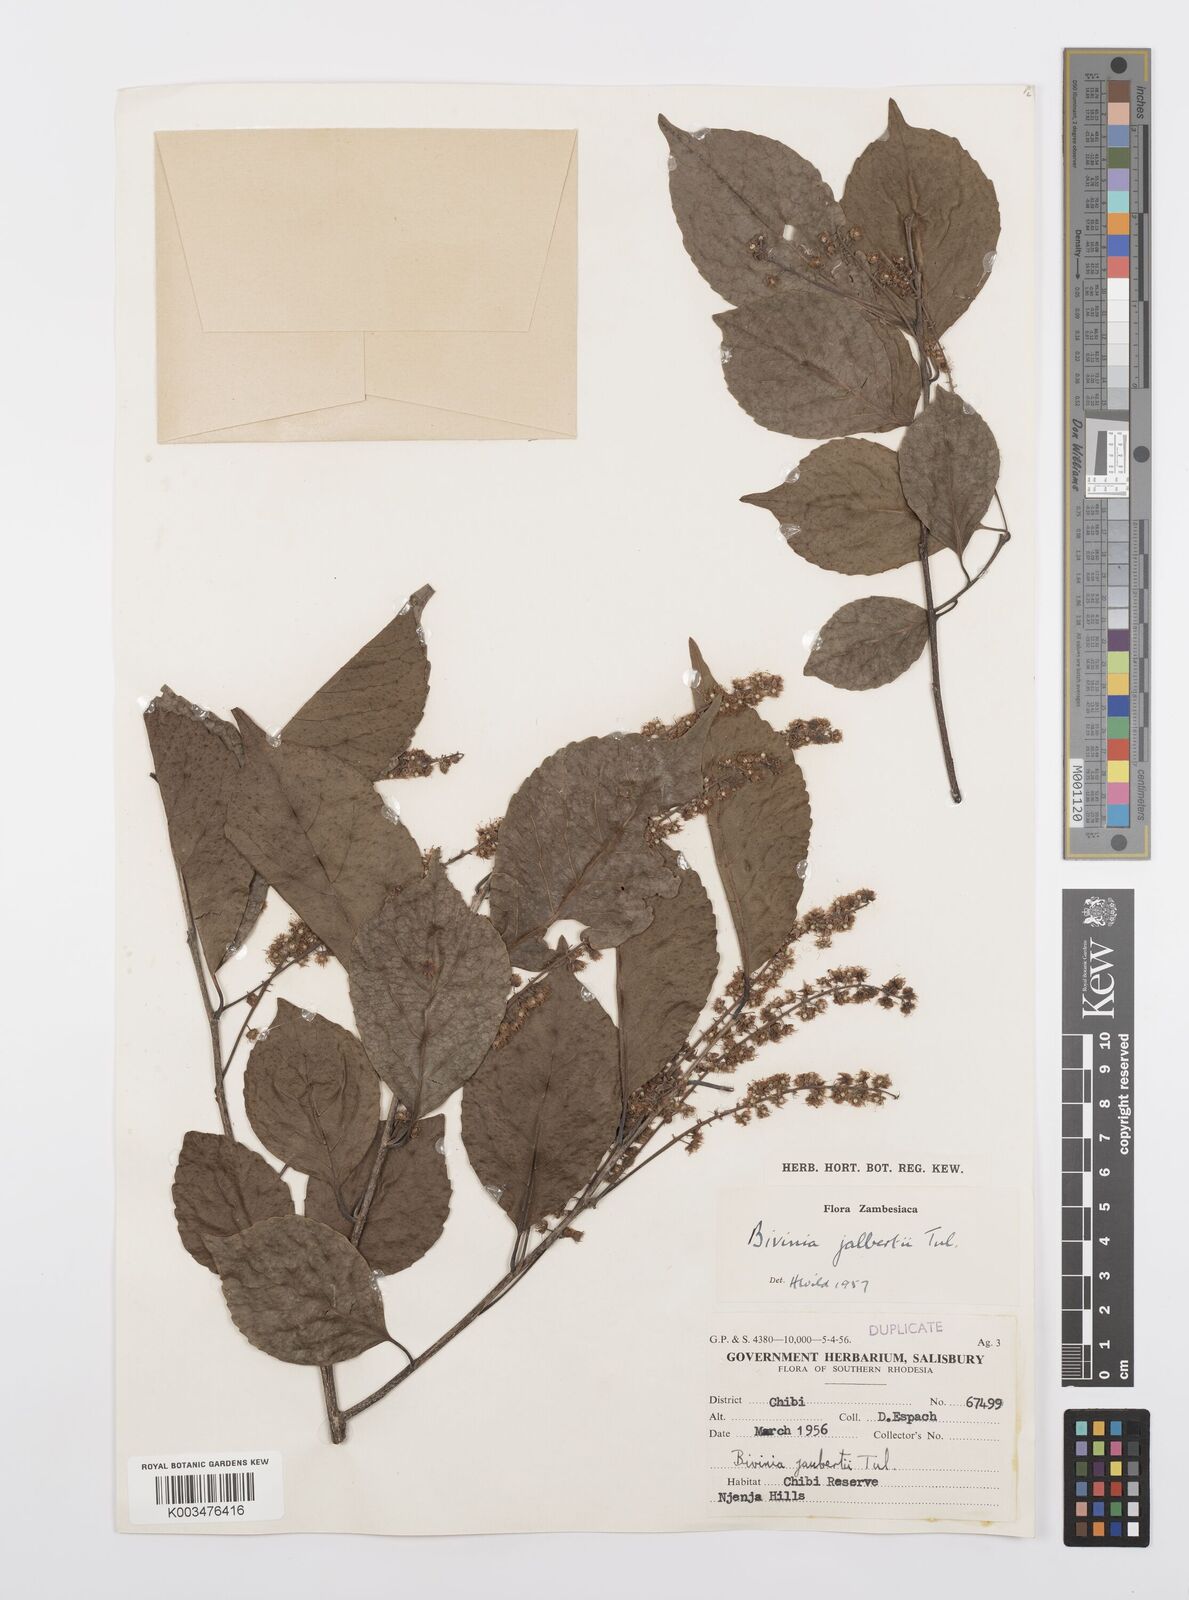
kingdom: Plantae
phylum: Tracheophyta
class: Magnoliopsida
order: Malpighiales
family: Salicaceae
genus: Bivinia
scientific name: Bivinia jalbertii
